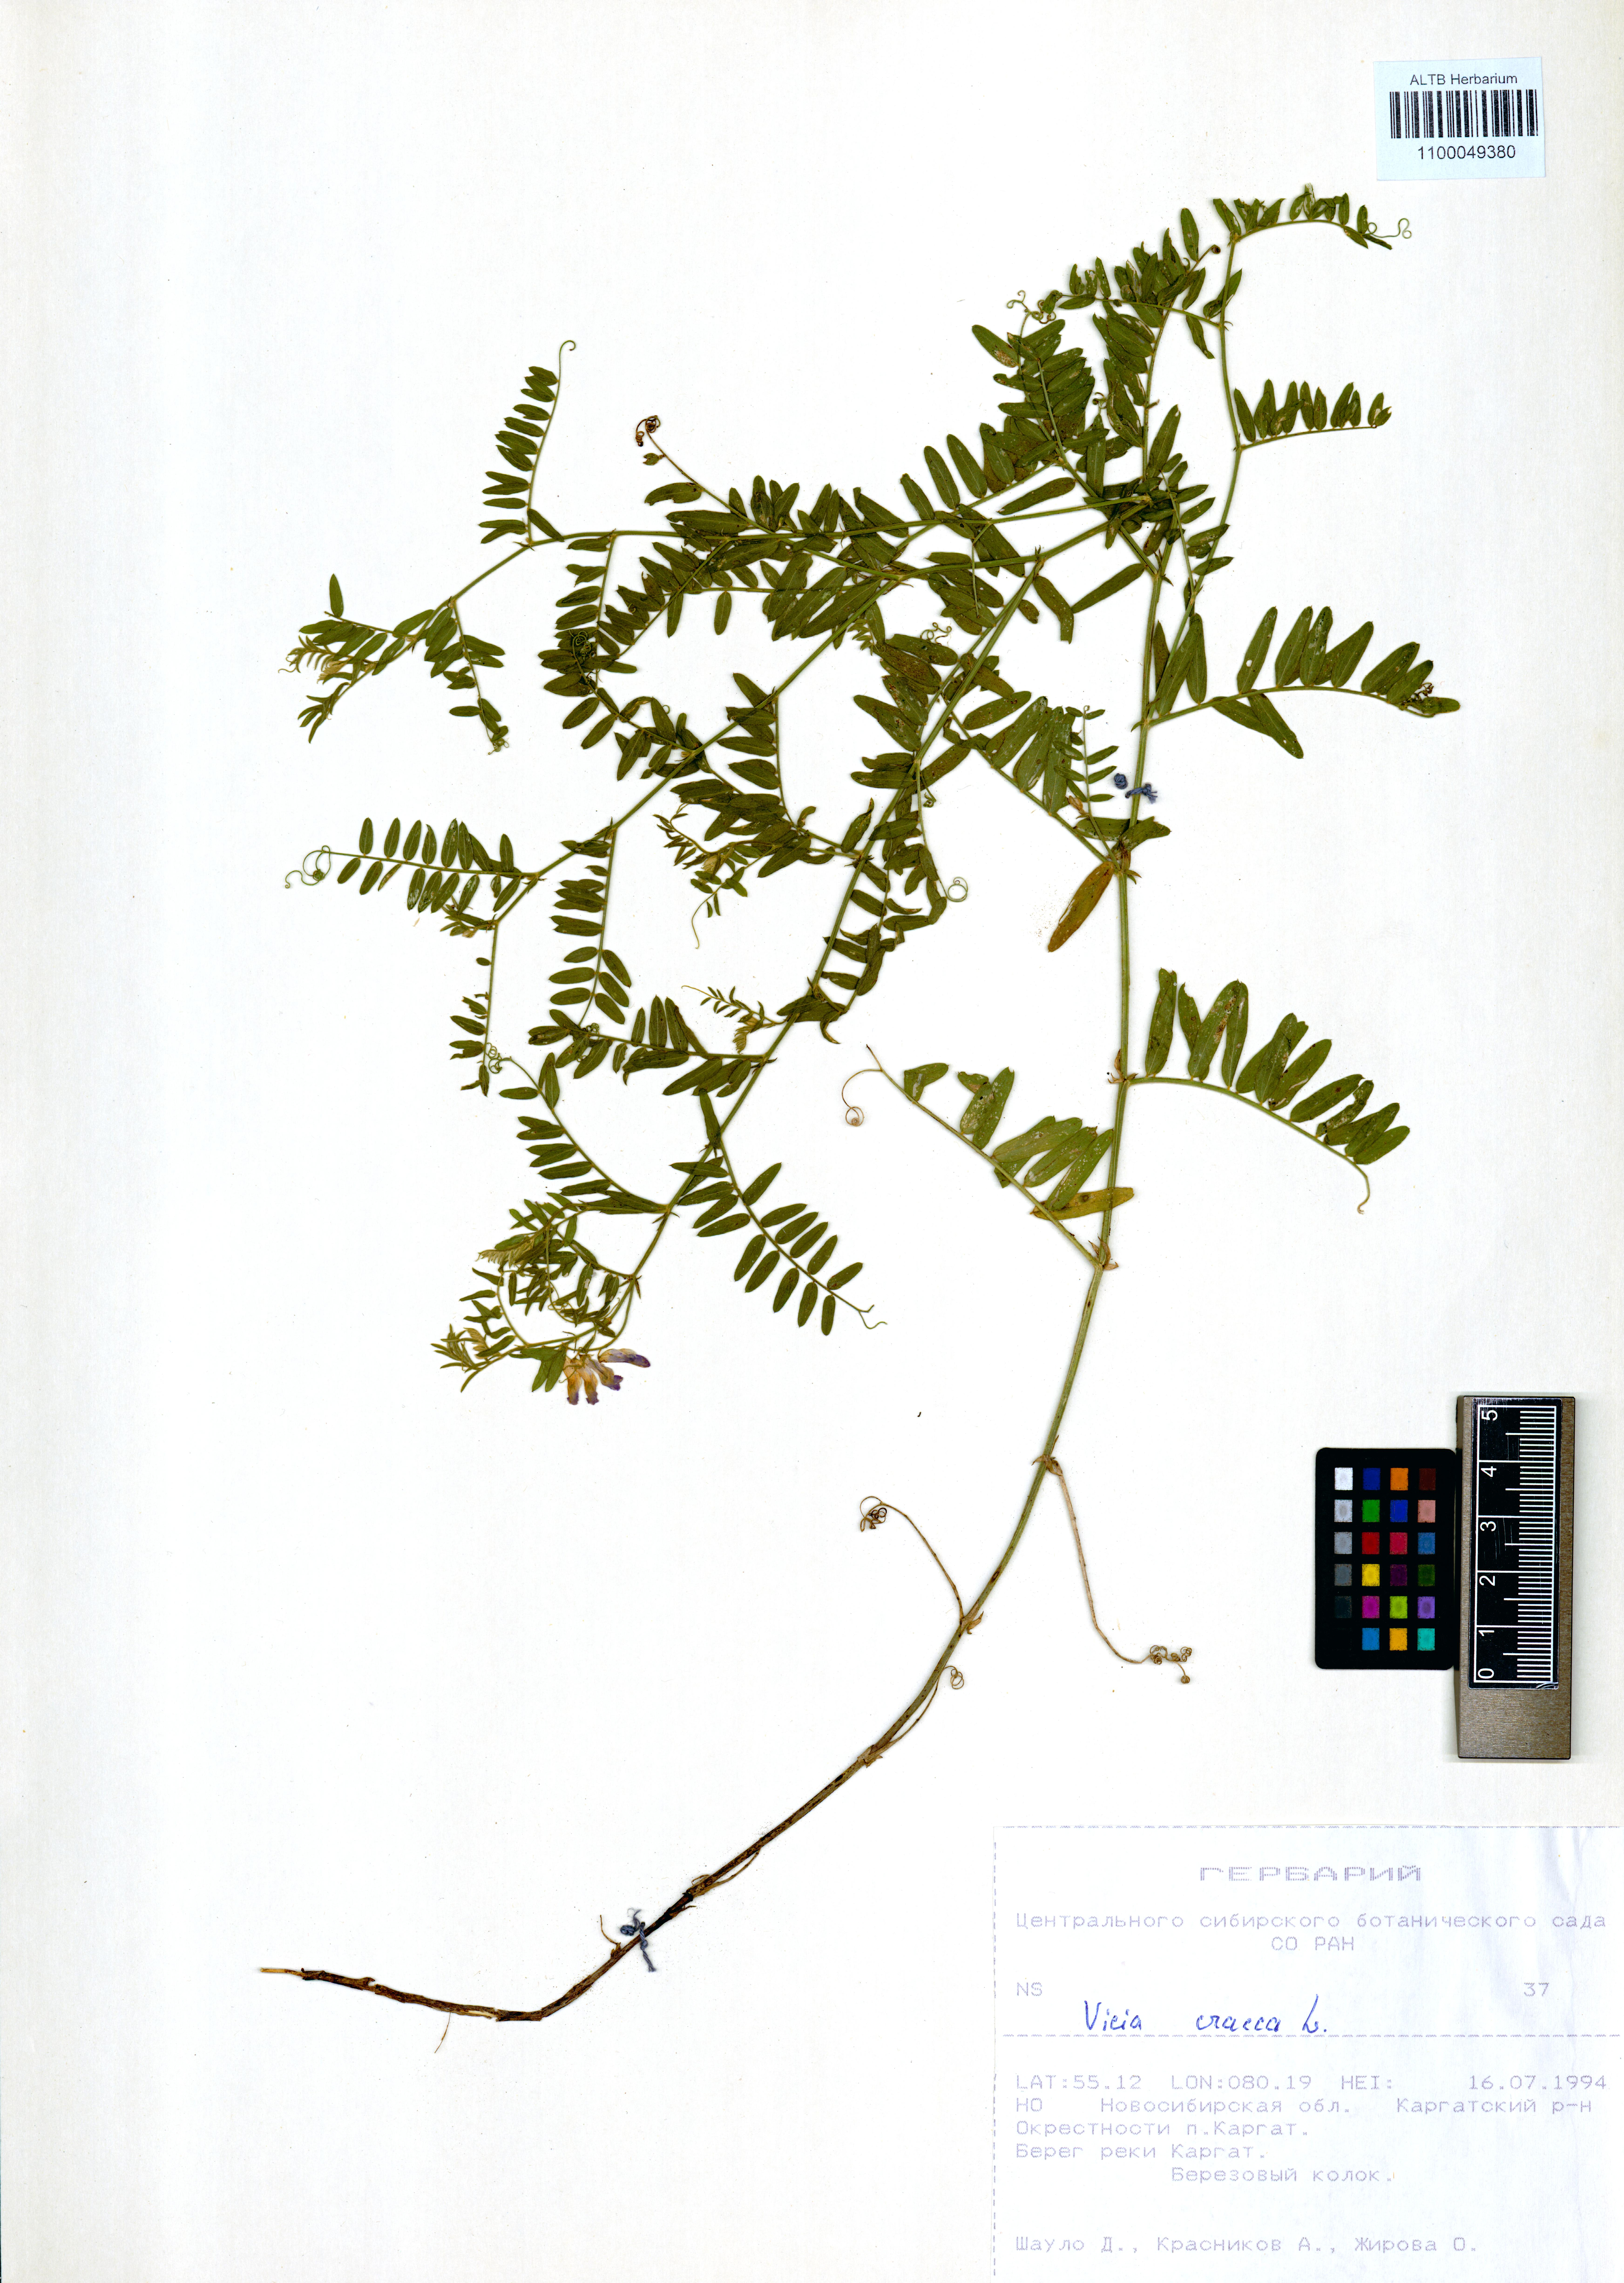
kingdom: Plantae
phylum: Tracheophyta
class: Magnoliopsida
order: Fabales
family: Fabaceae
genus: Vicia
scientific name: Vicia cracca
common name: Bird vetch
